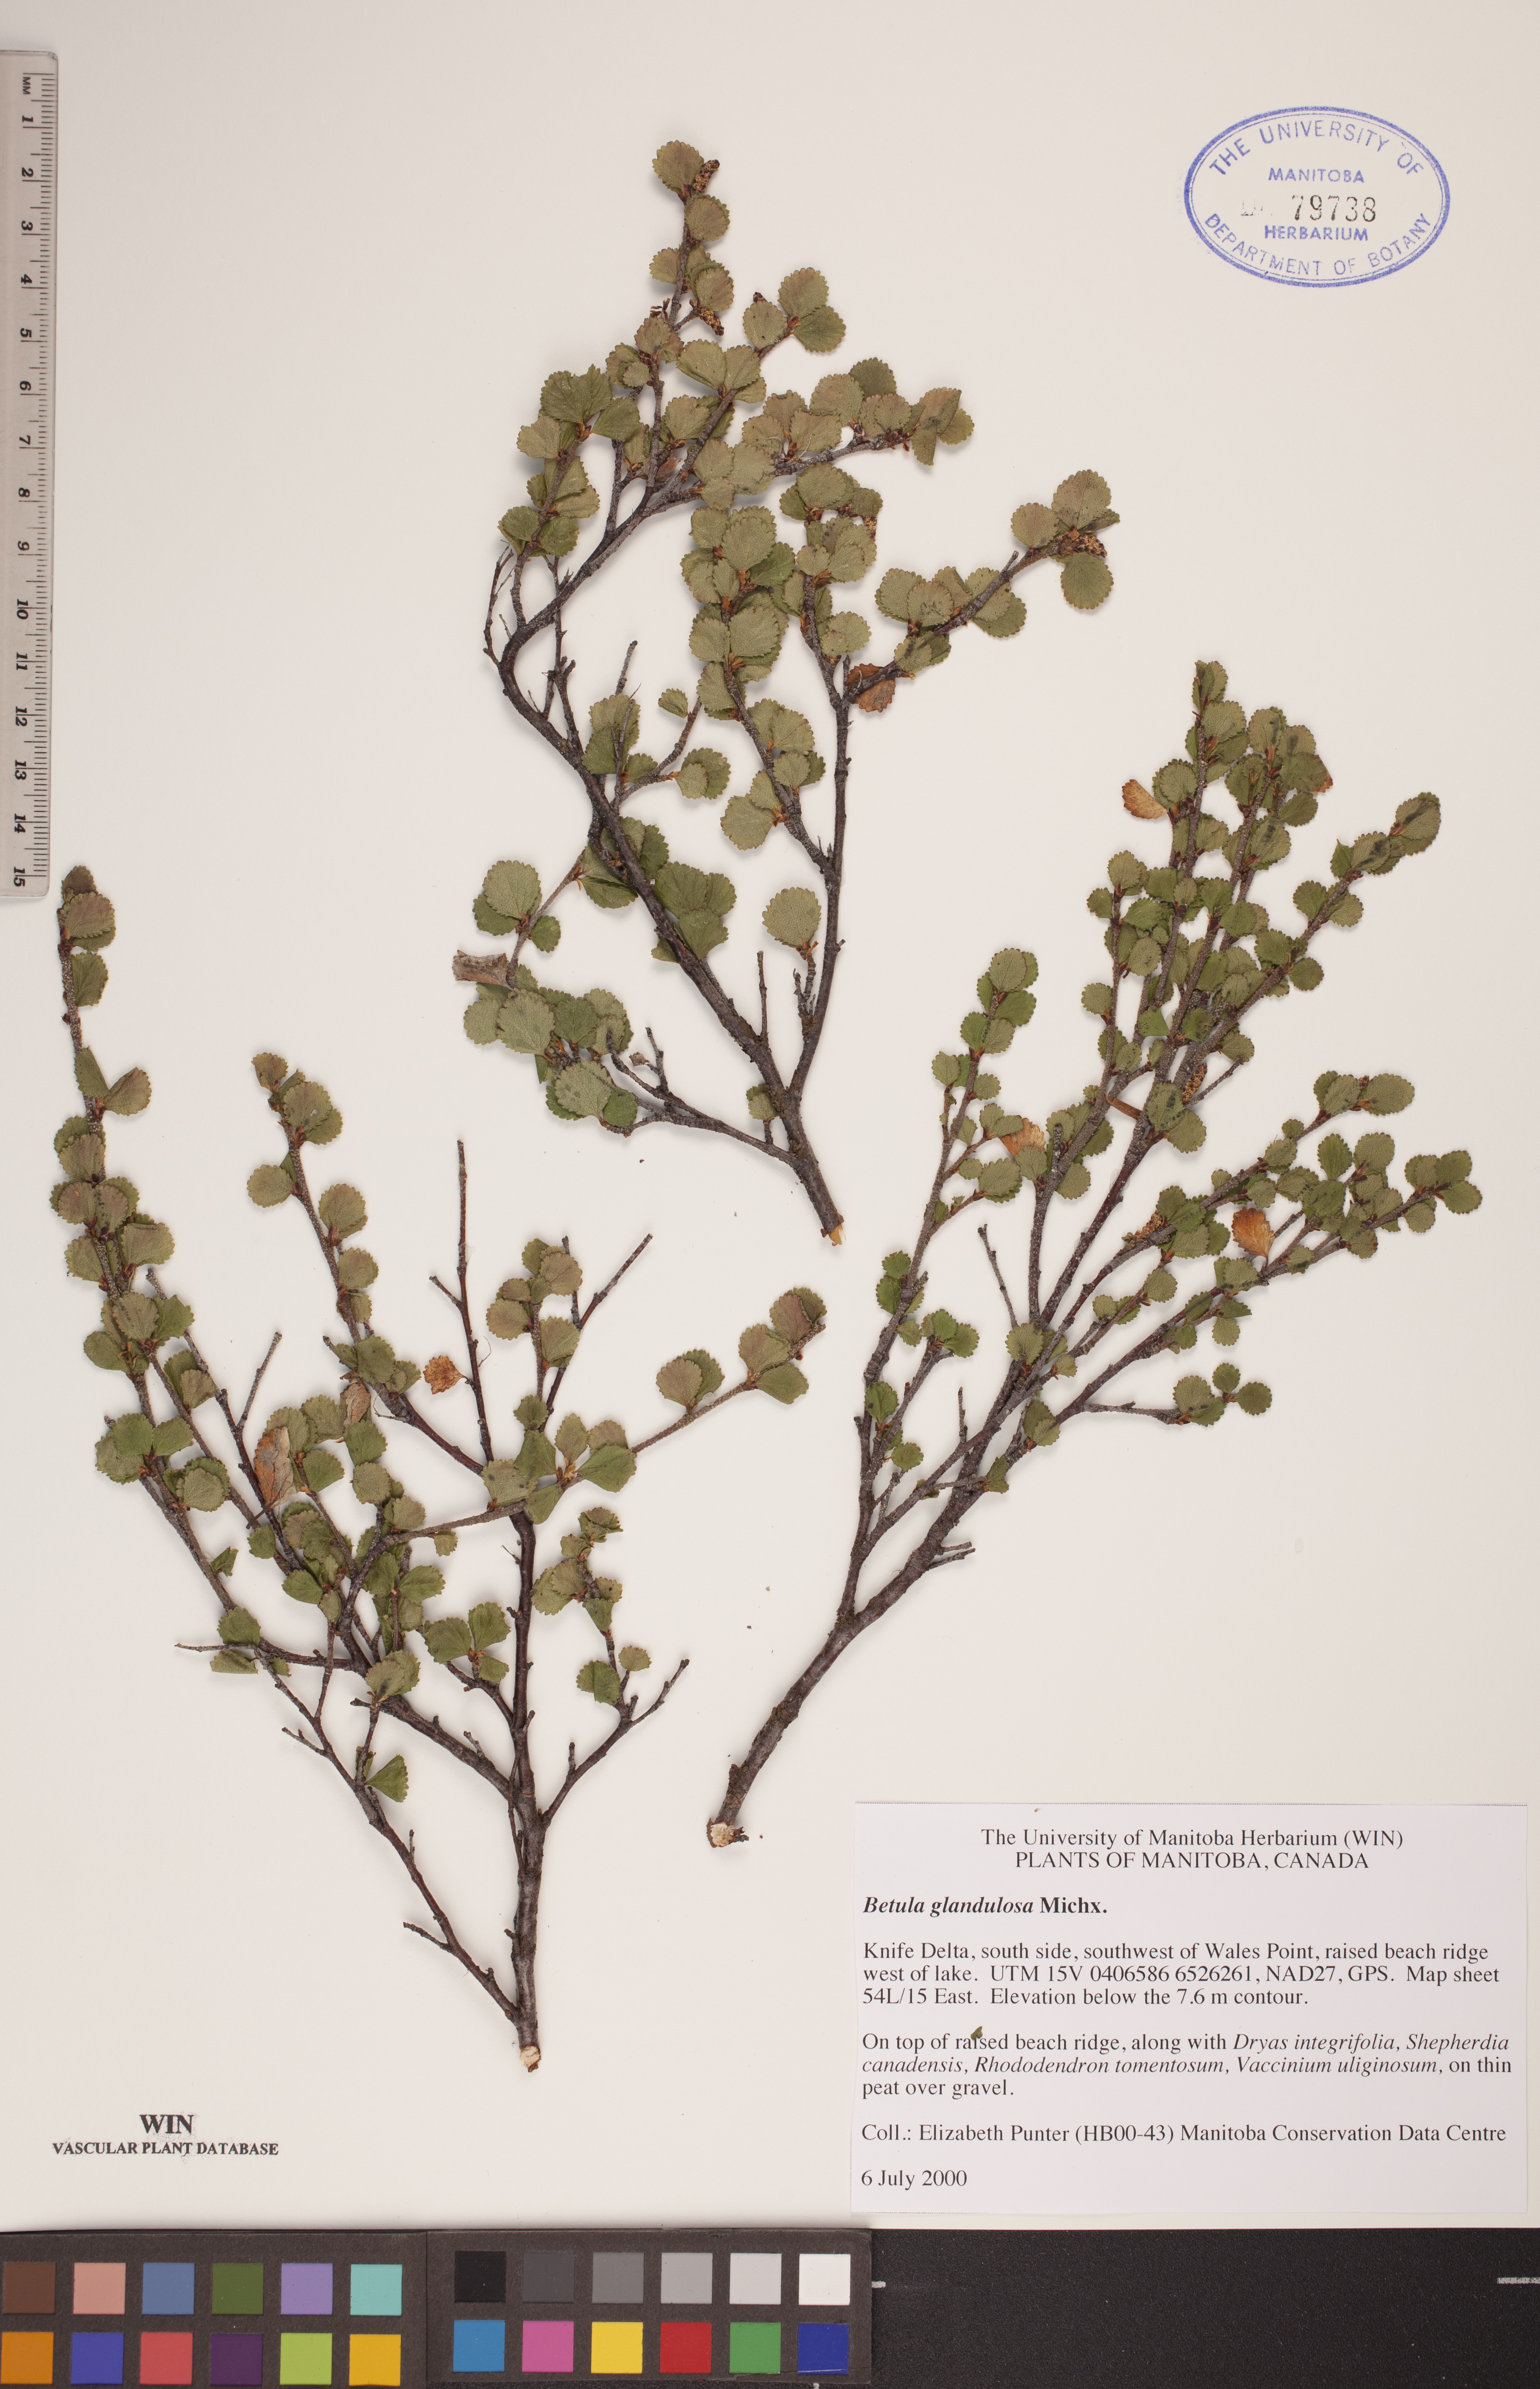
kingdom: Plantae
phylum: Tracheophyta
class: Magnoliopsida
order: Fagales
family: Betulaceae
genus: Betula
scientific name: Betula glandulosa
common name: Dwarf birch
